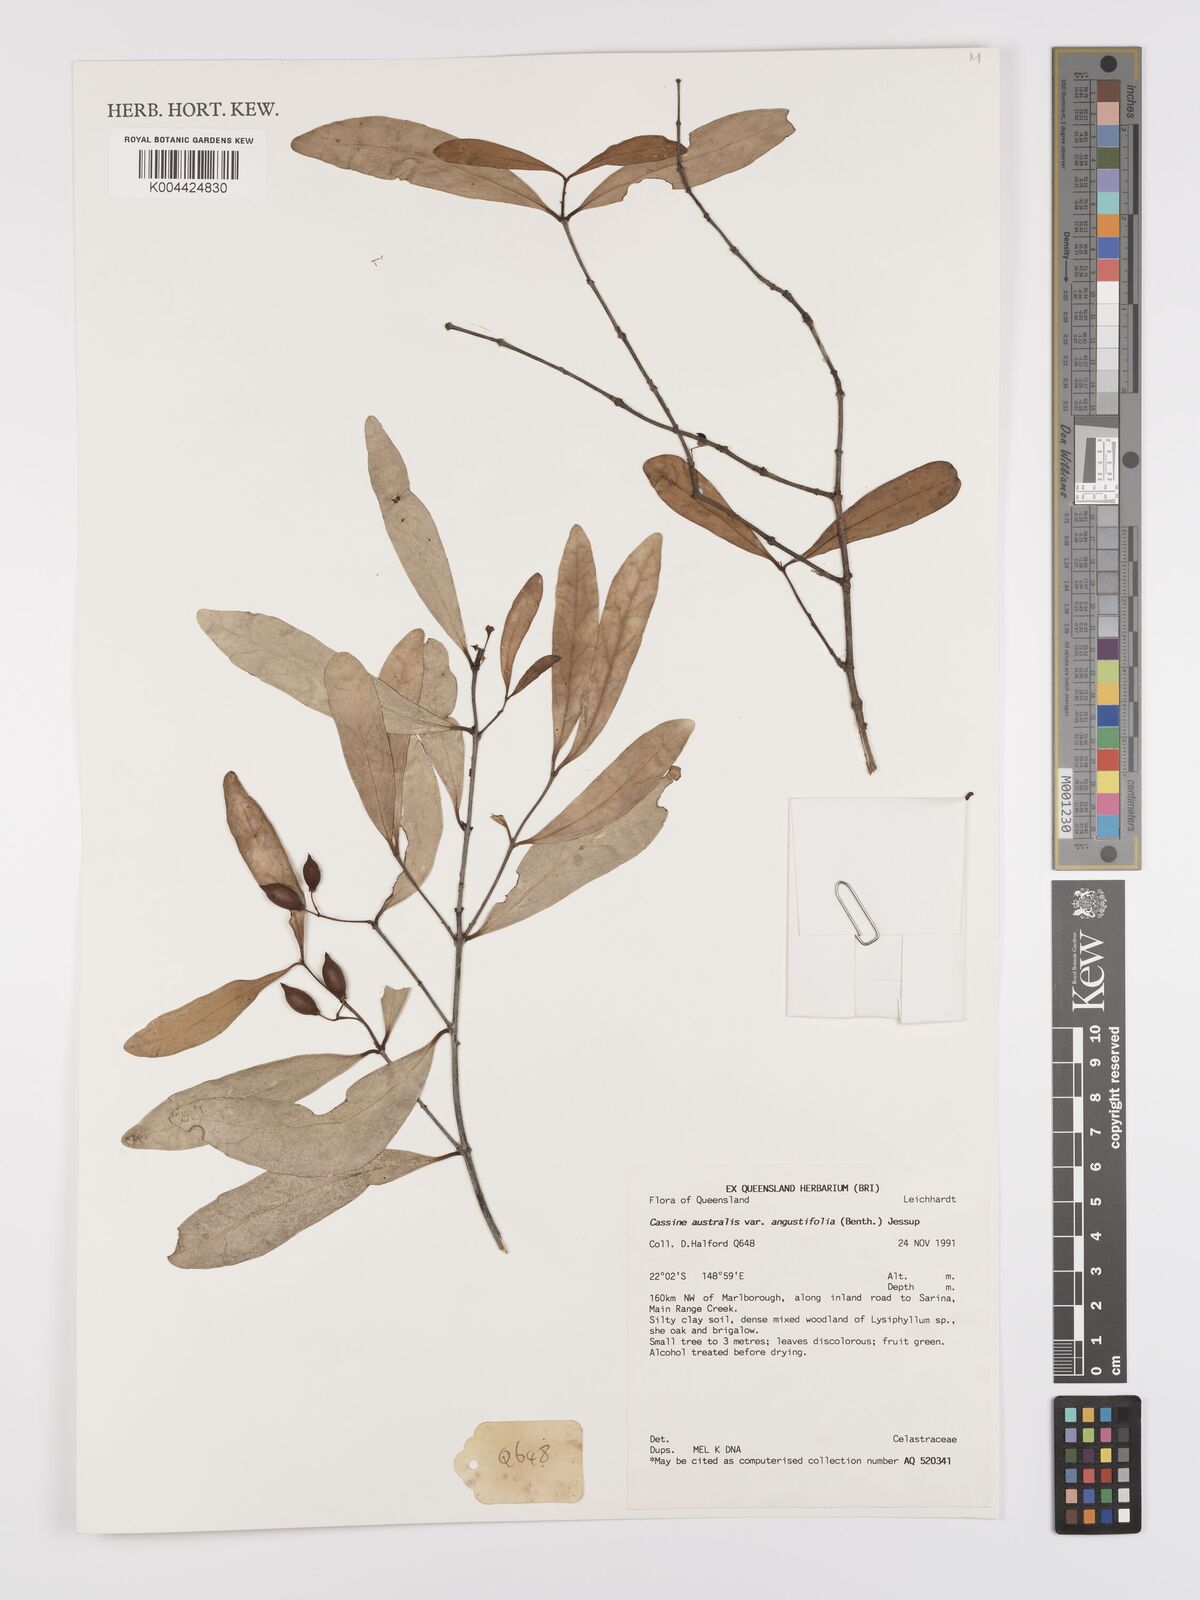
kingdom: Plantae
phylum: Tracheophyta
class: Magnoliopsida
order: Celastrales
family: Celastraceae
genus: Elaeodendron
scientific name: Elaeodendron australe
